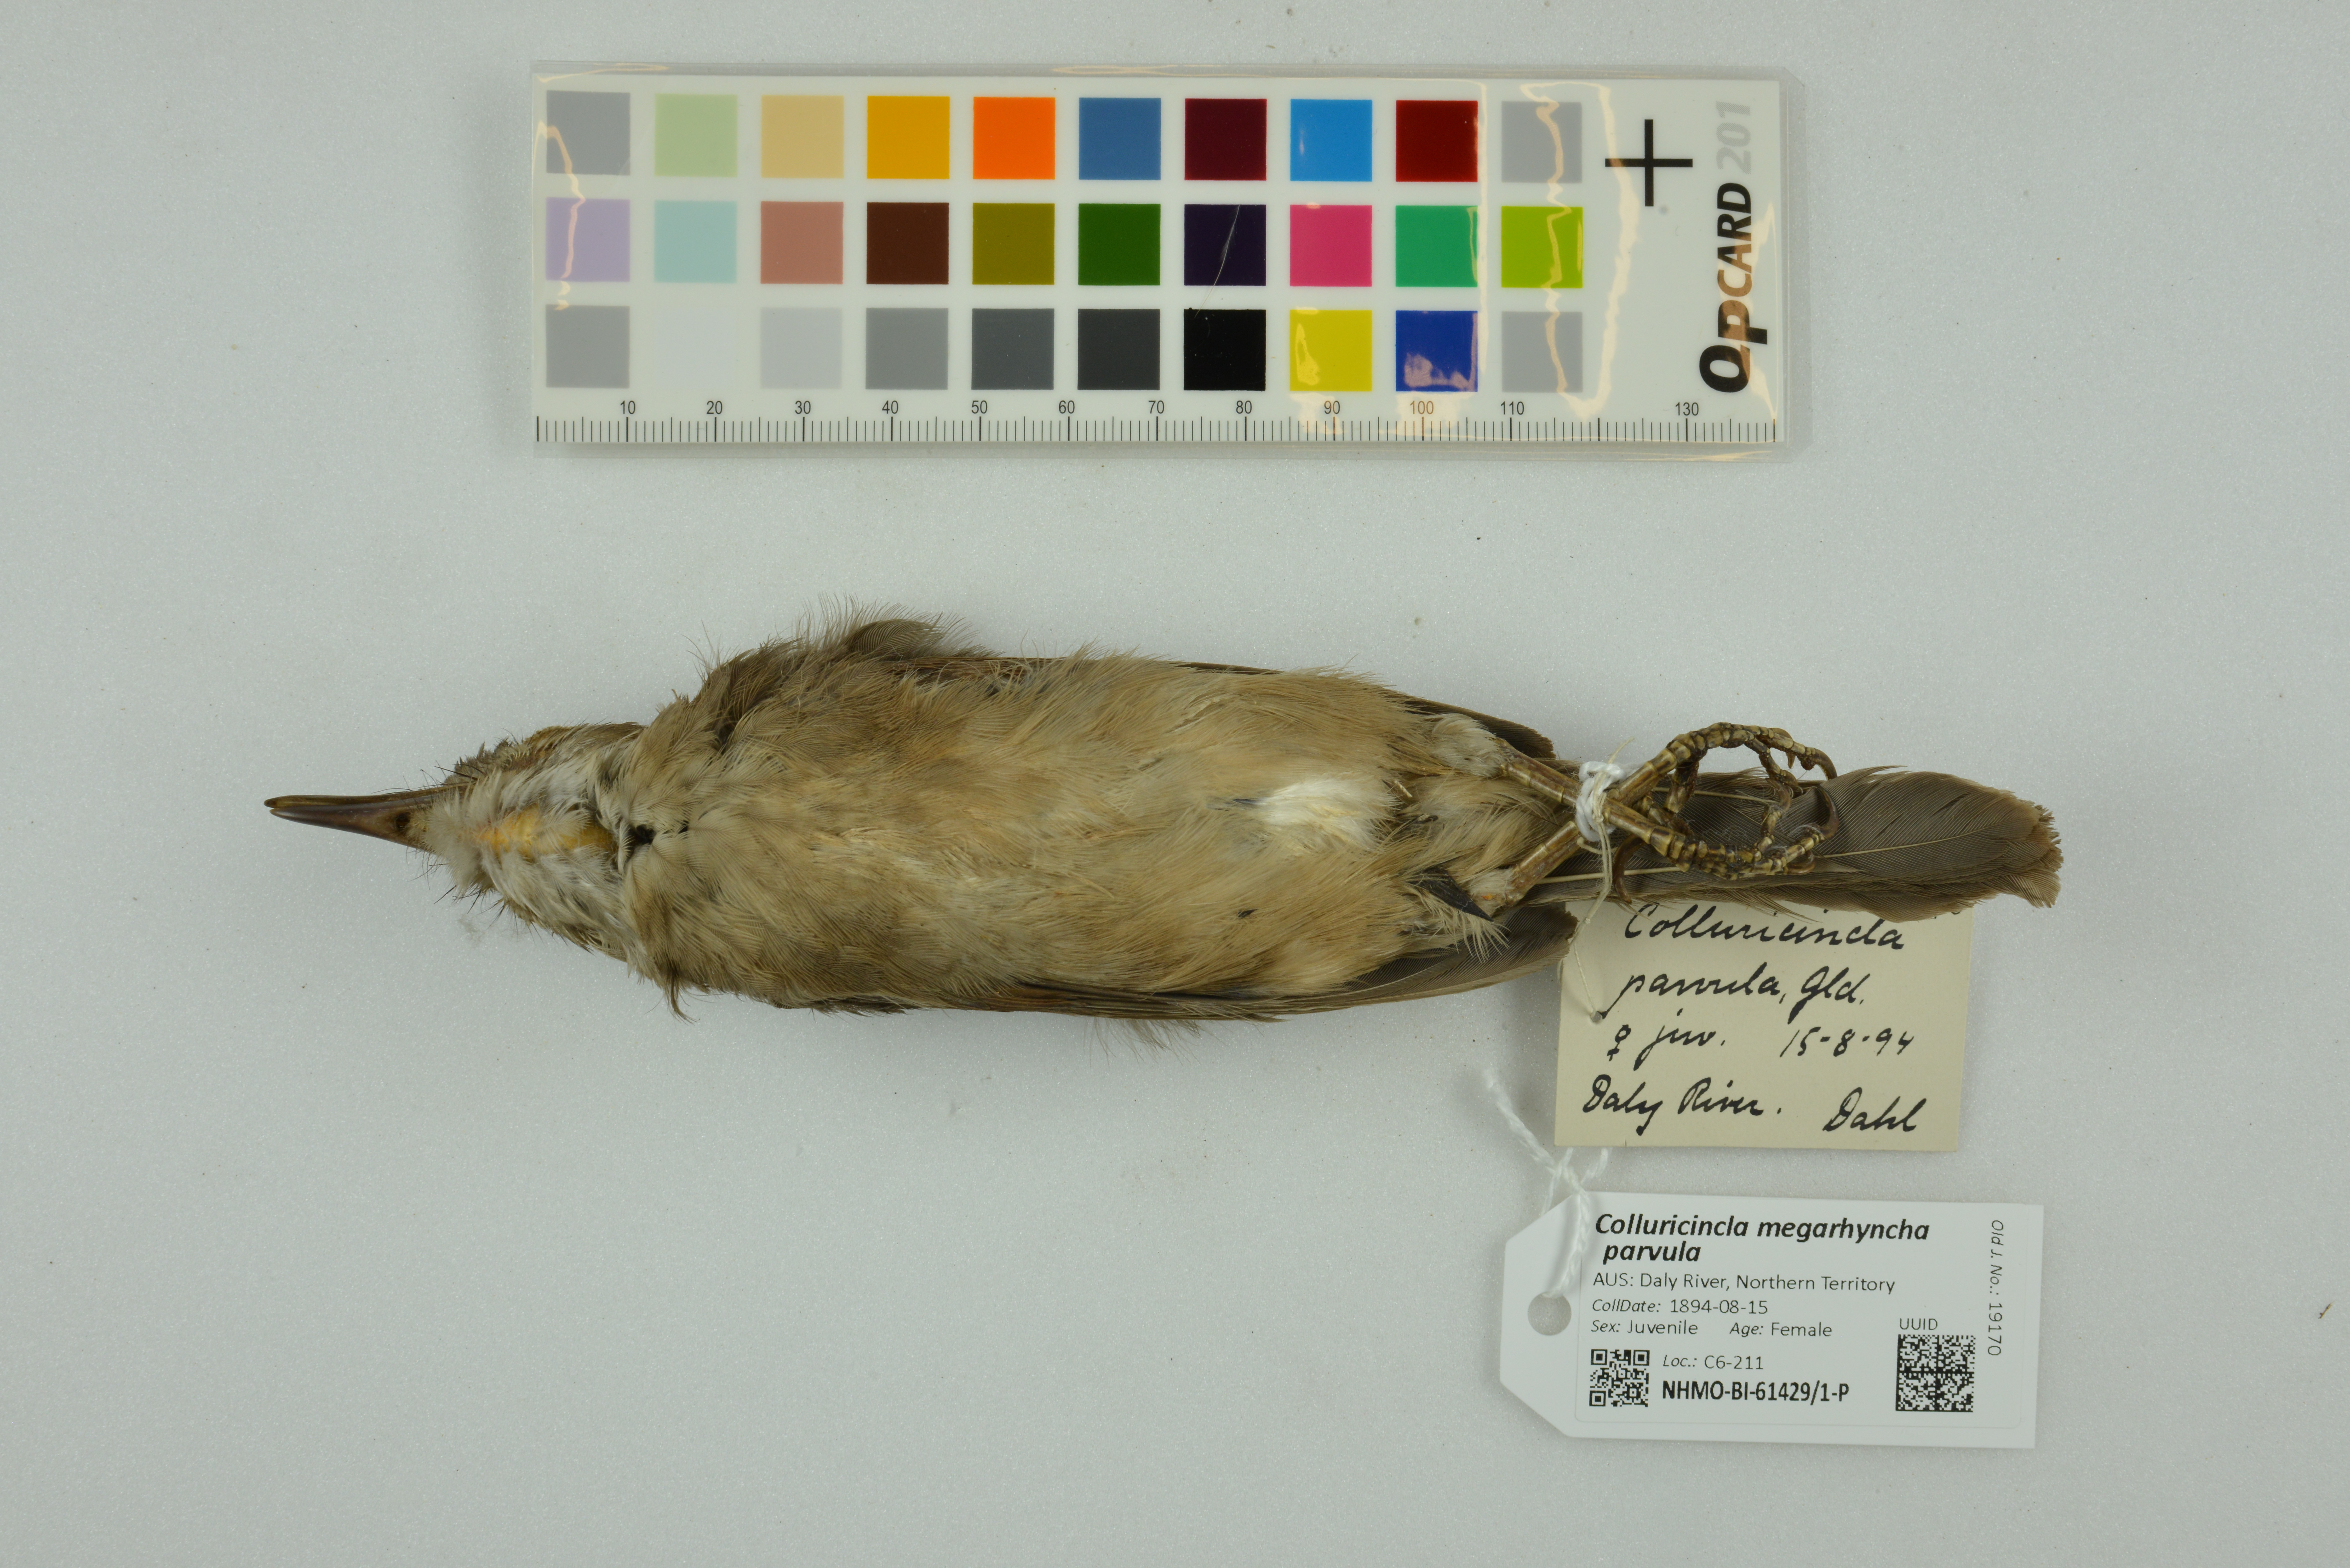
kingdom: Animalia
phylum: Chordata
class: Aves
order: Passeriformes
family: Pachycephalidae
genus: Colluricincla
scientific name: Colluricincla megarhyncha
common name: Little shrikethrush
